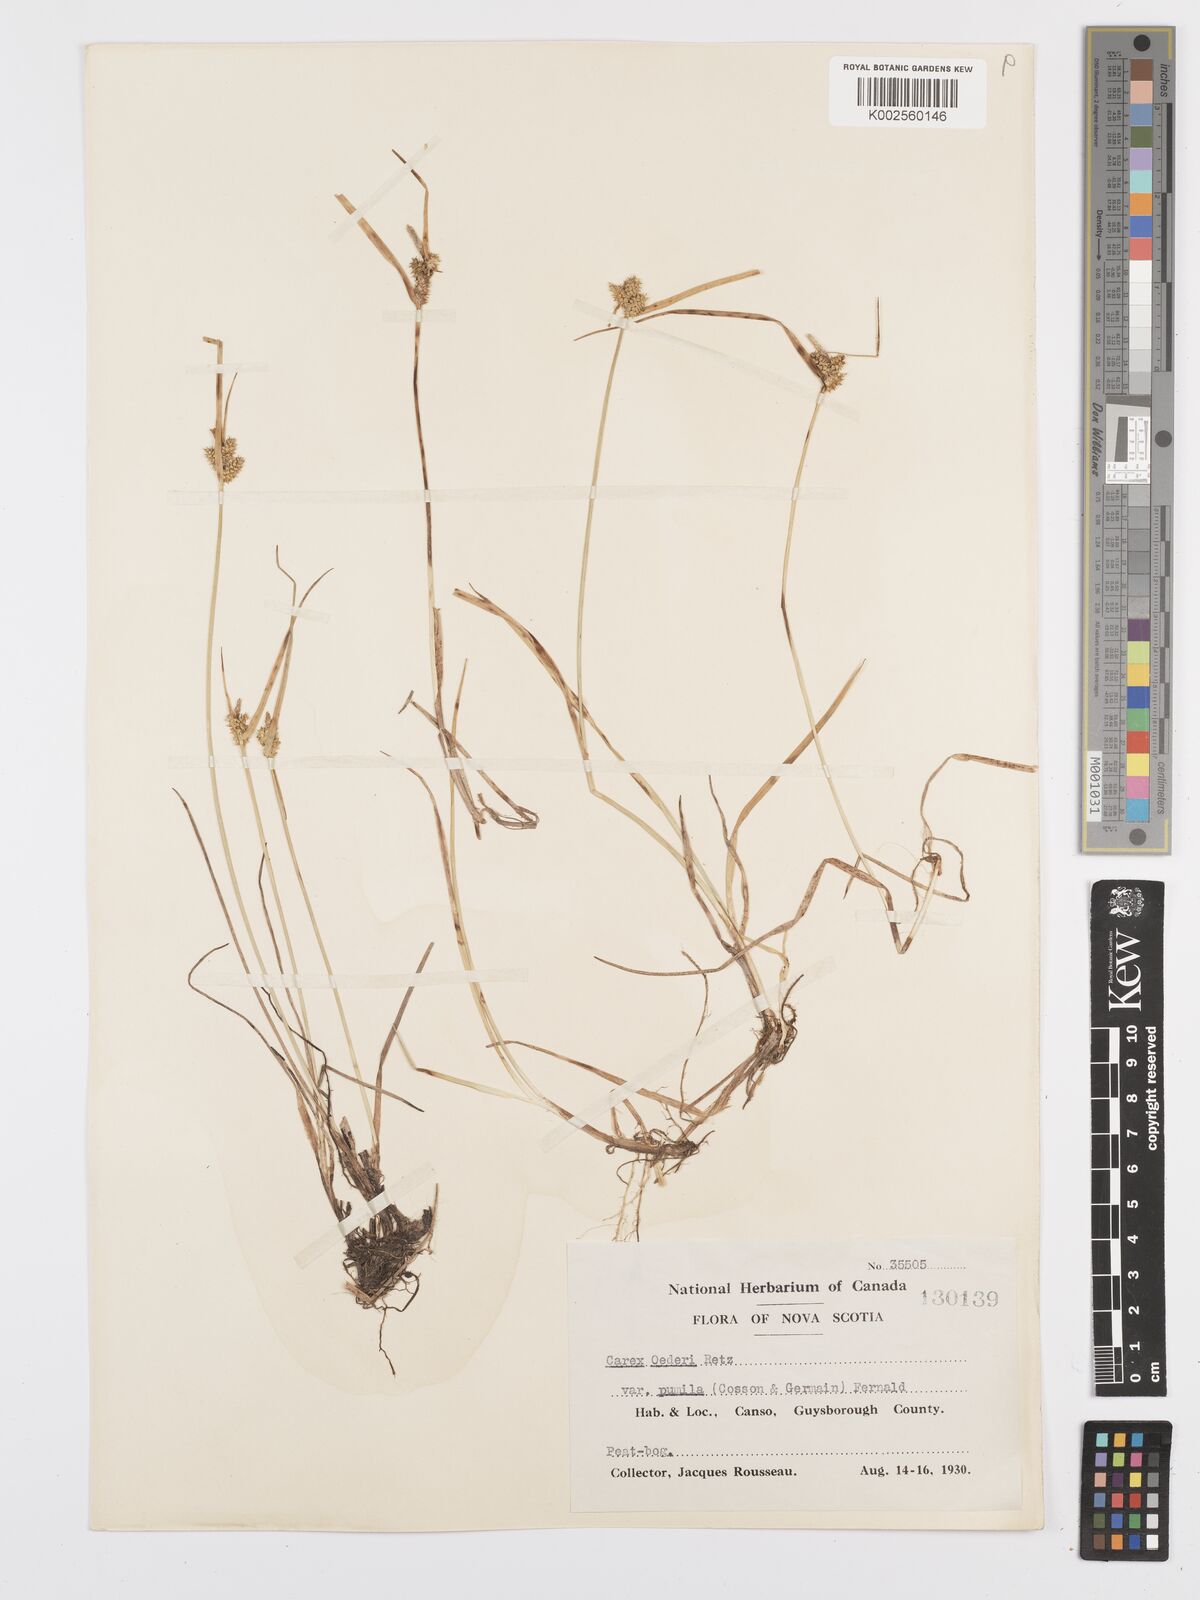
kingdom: Plantae
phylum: Tracheophyta
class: Liliopsida
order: Poales
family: Cyperaceae
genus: Carex
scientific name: Carex oederi
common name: Common & small-fruited yellow-sedge
